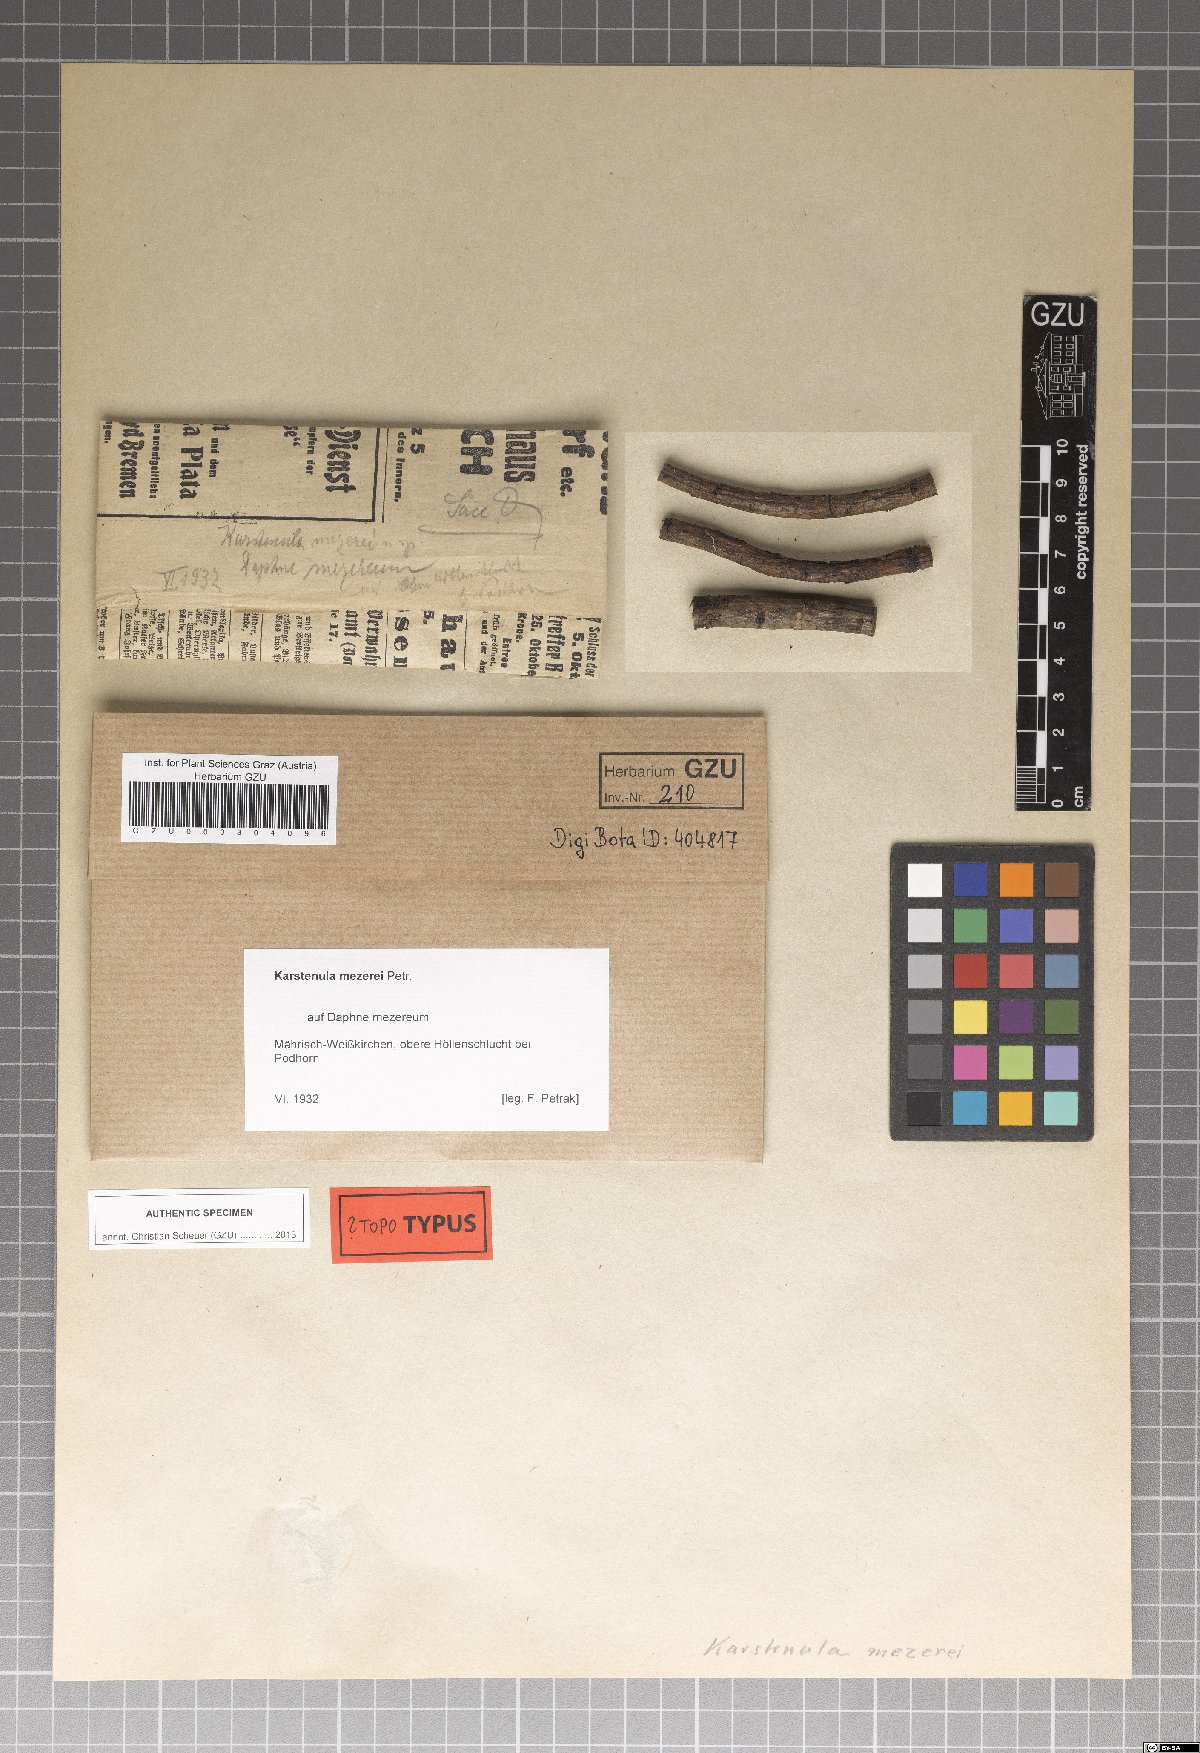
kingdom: Fungi
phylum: Ascomycota
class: Dothideomycetes
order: Pleosporales
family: Didymosphaeriaceae
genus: Karstenula
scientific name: Karstenula mezerei
